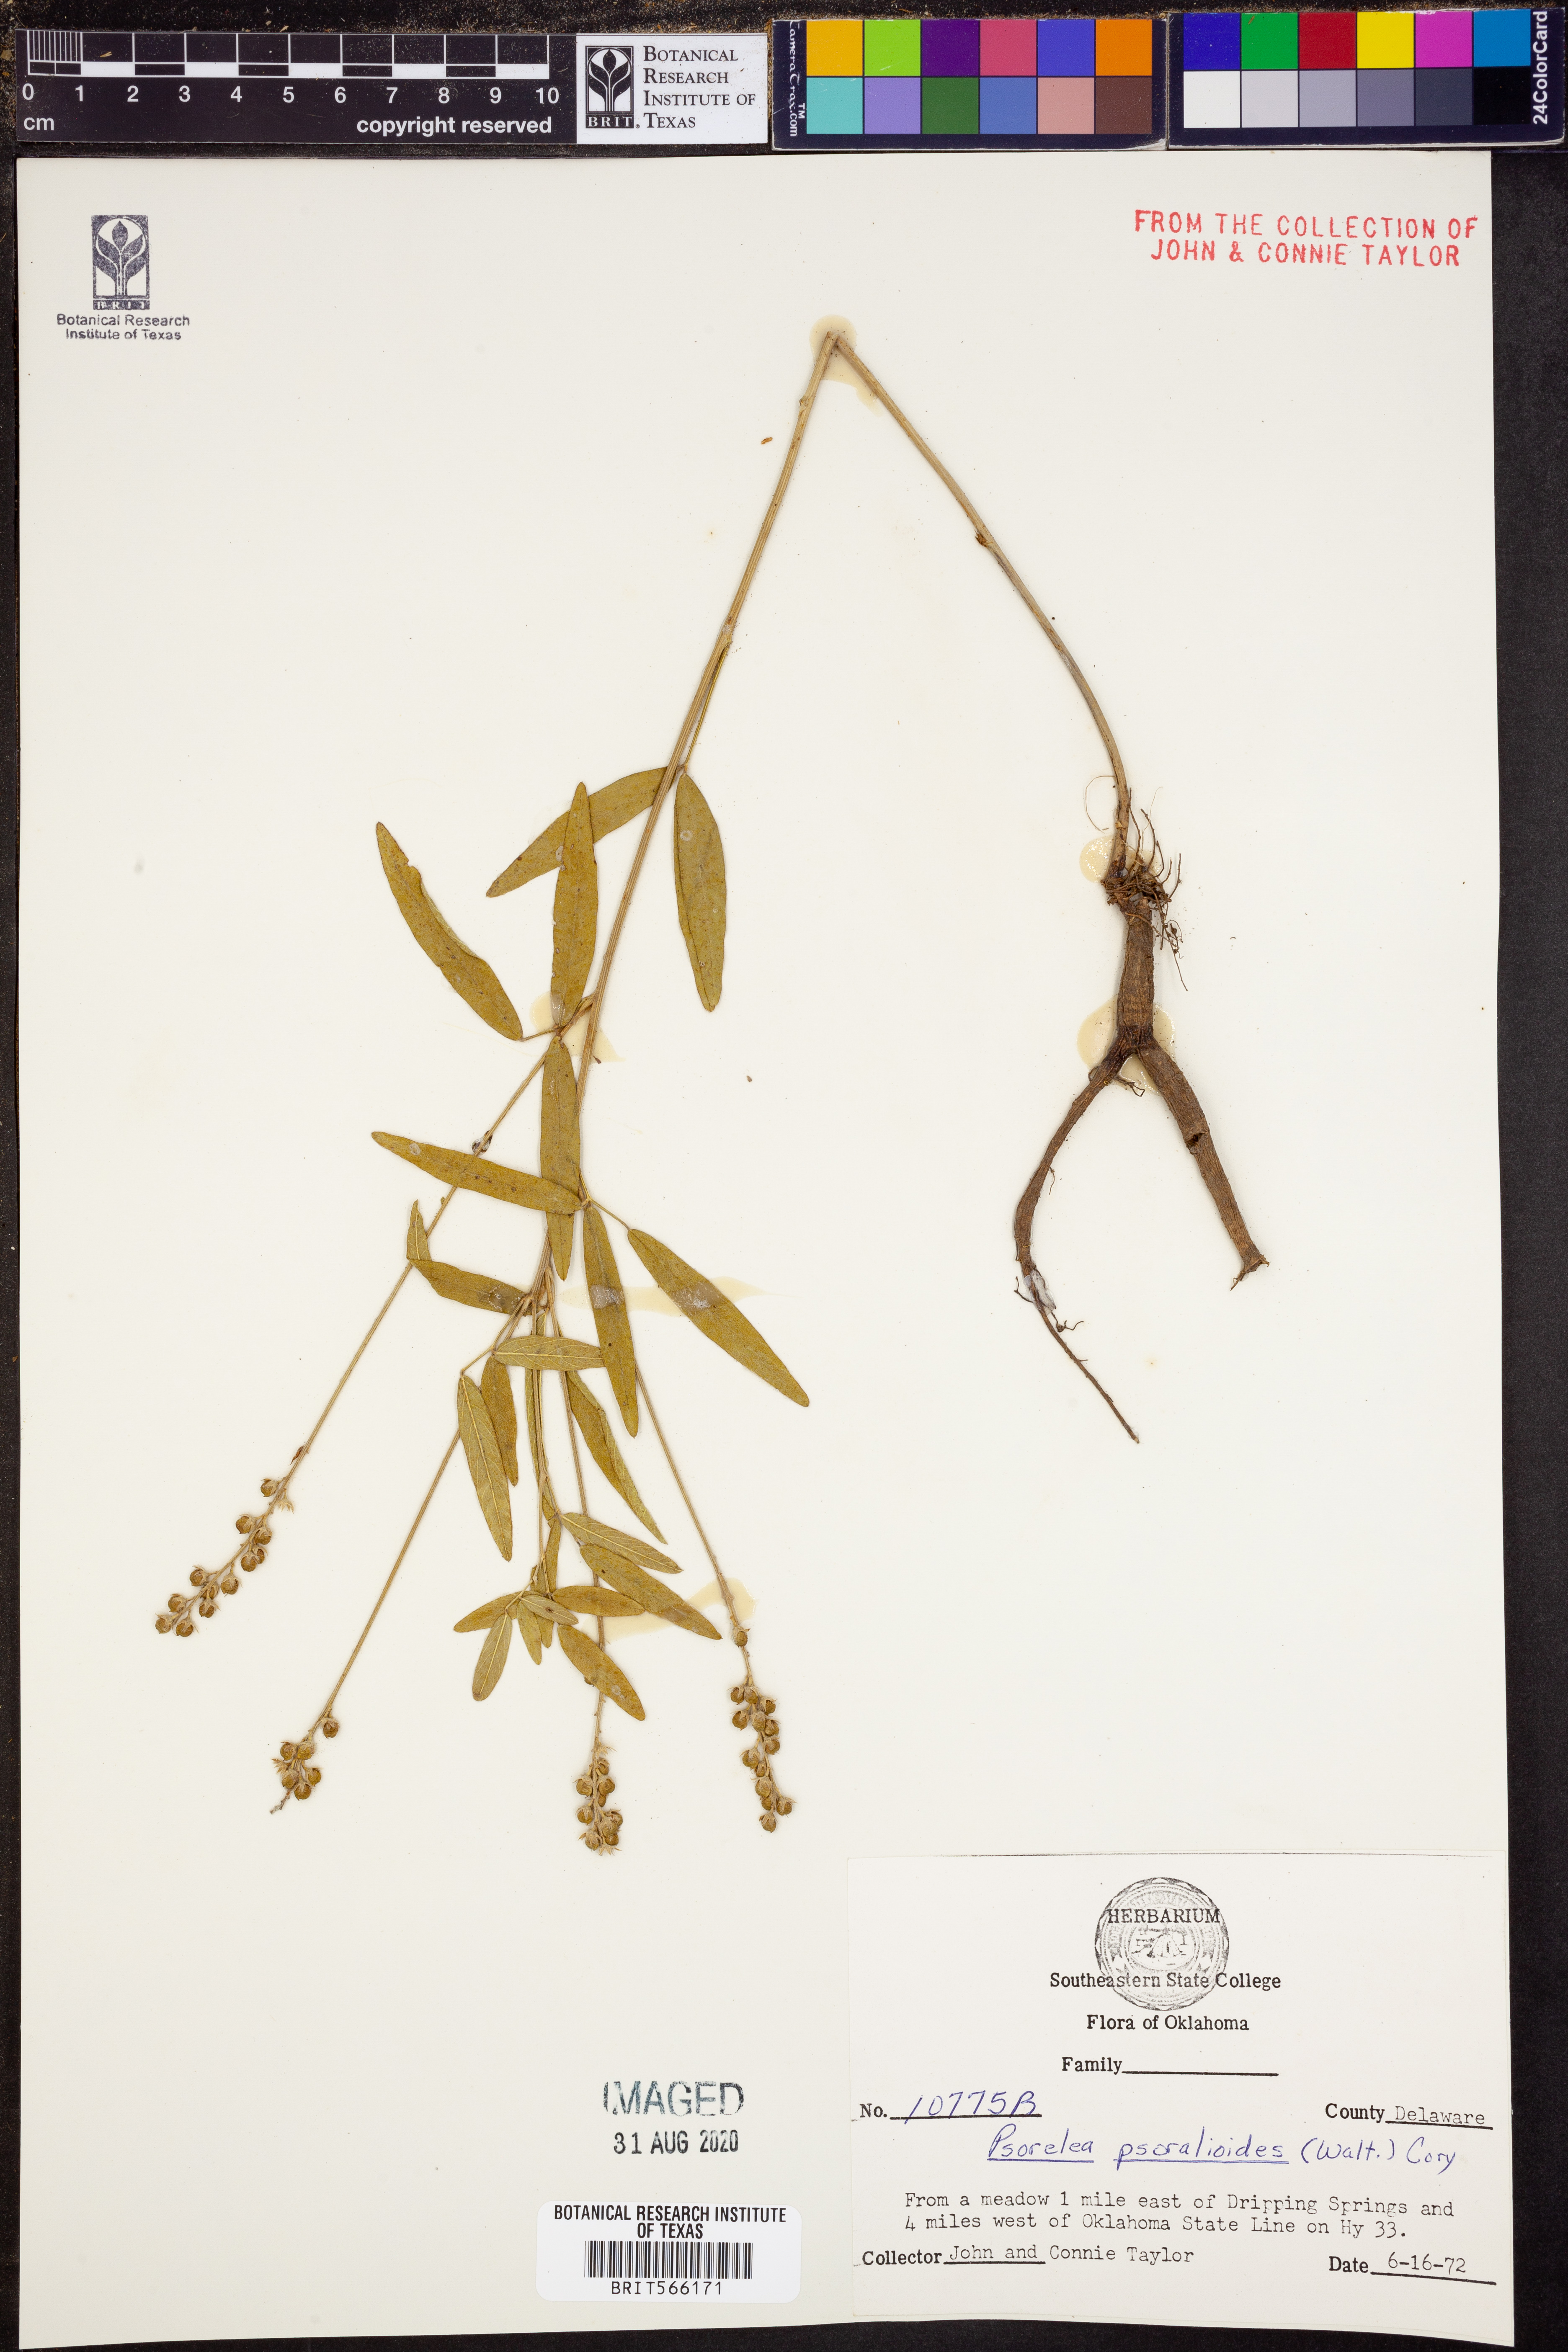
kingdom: Plantae
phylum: Tracheophyta
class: Magnoliopsida
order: Fabales
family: Fabaceae
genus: Orbexilum
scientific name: Orbexilum psoralioides
